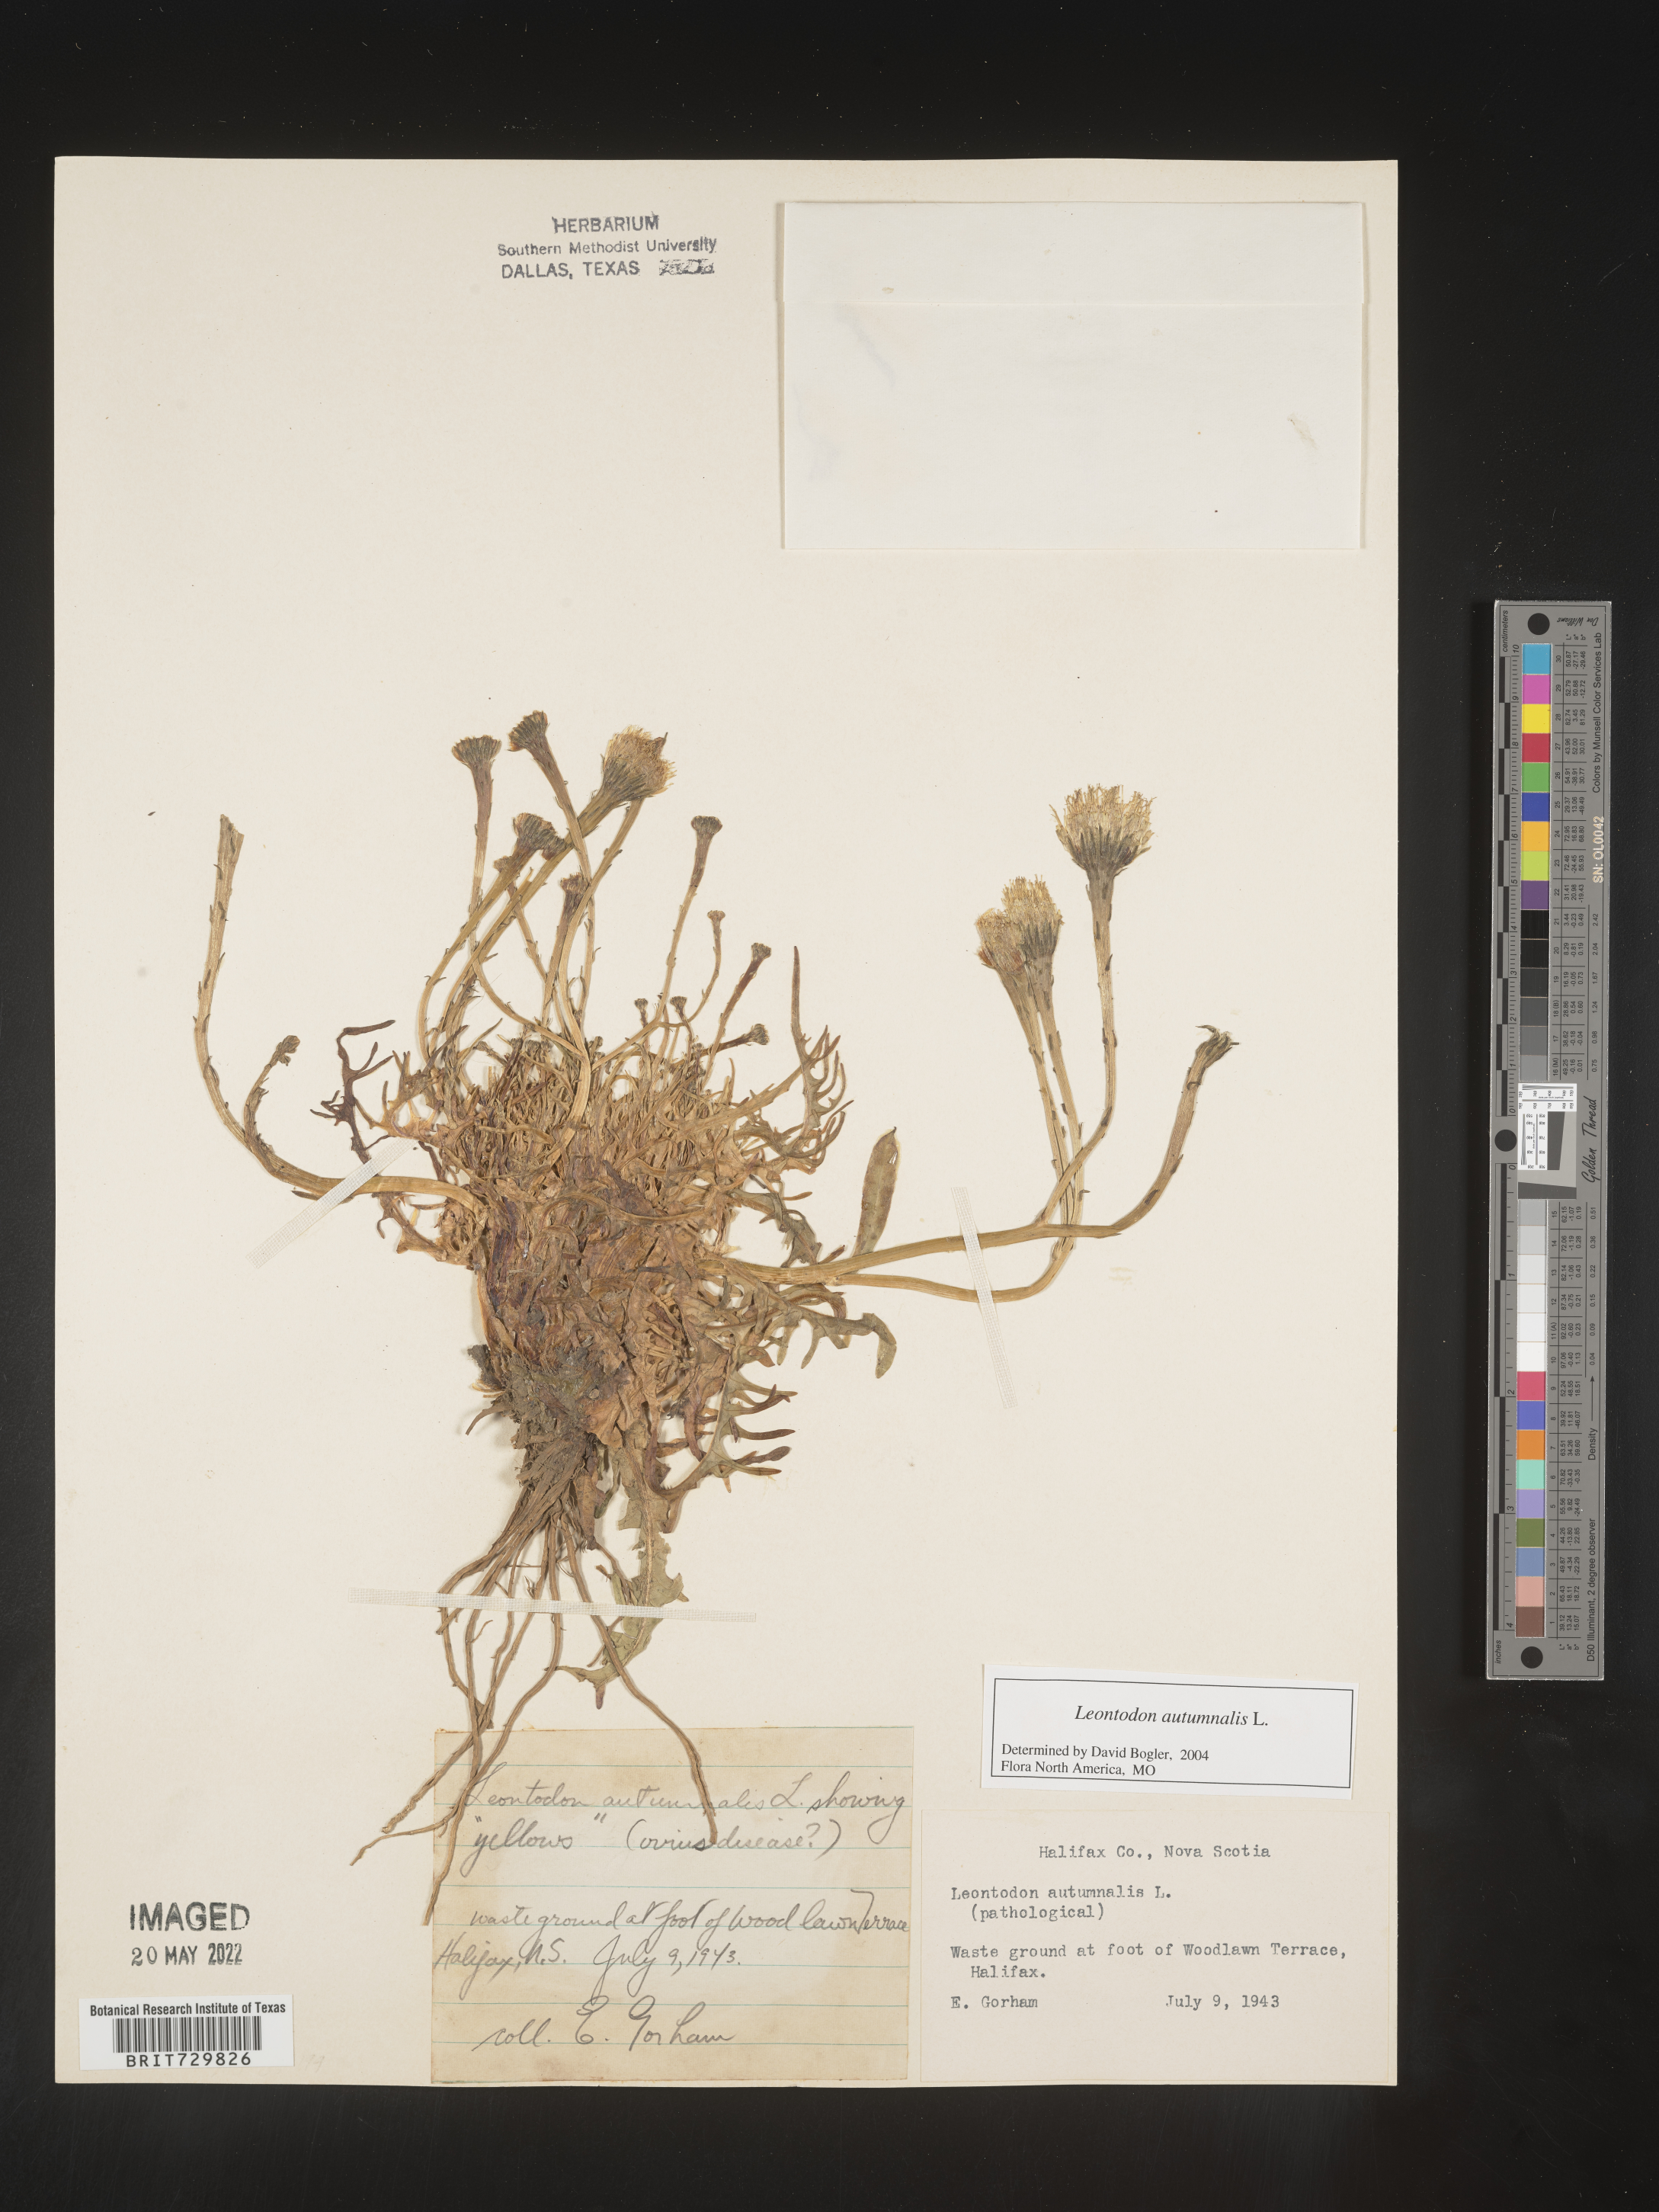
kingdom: Plantae
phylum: Tracheophyta
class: Magnoliopsida
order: Asterales
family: Asteraceae
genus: Leontodon
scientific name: Leontodon
